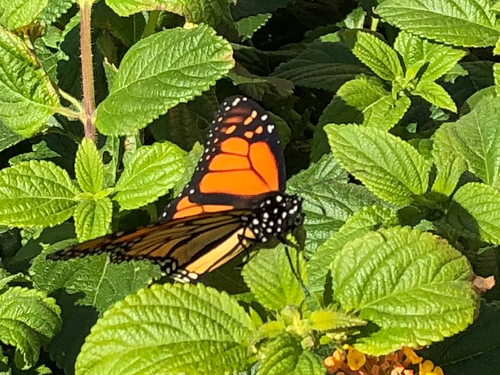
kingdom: Animalia
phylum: Arthropoda
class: Insecta
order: Lepidoptera
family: Nymphalidae
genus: Danaus
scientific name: Danaus plexippus
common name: Monarch
